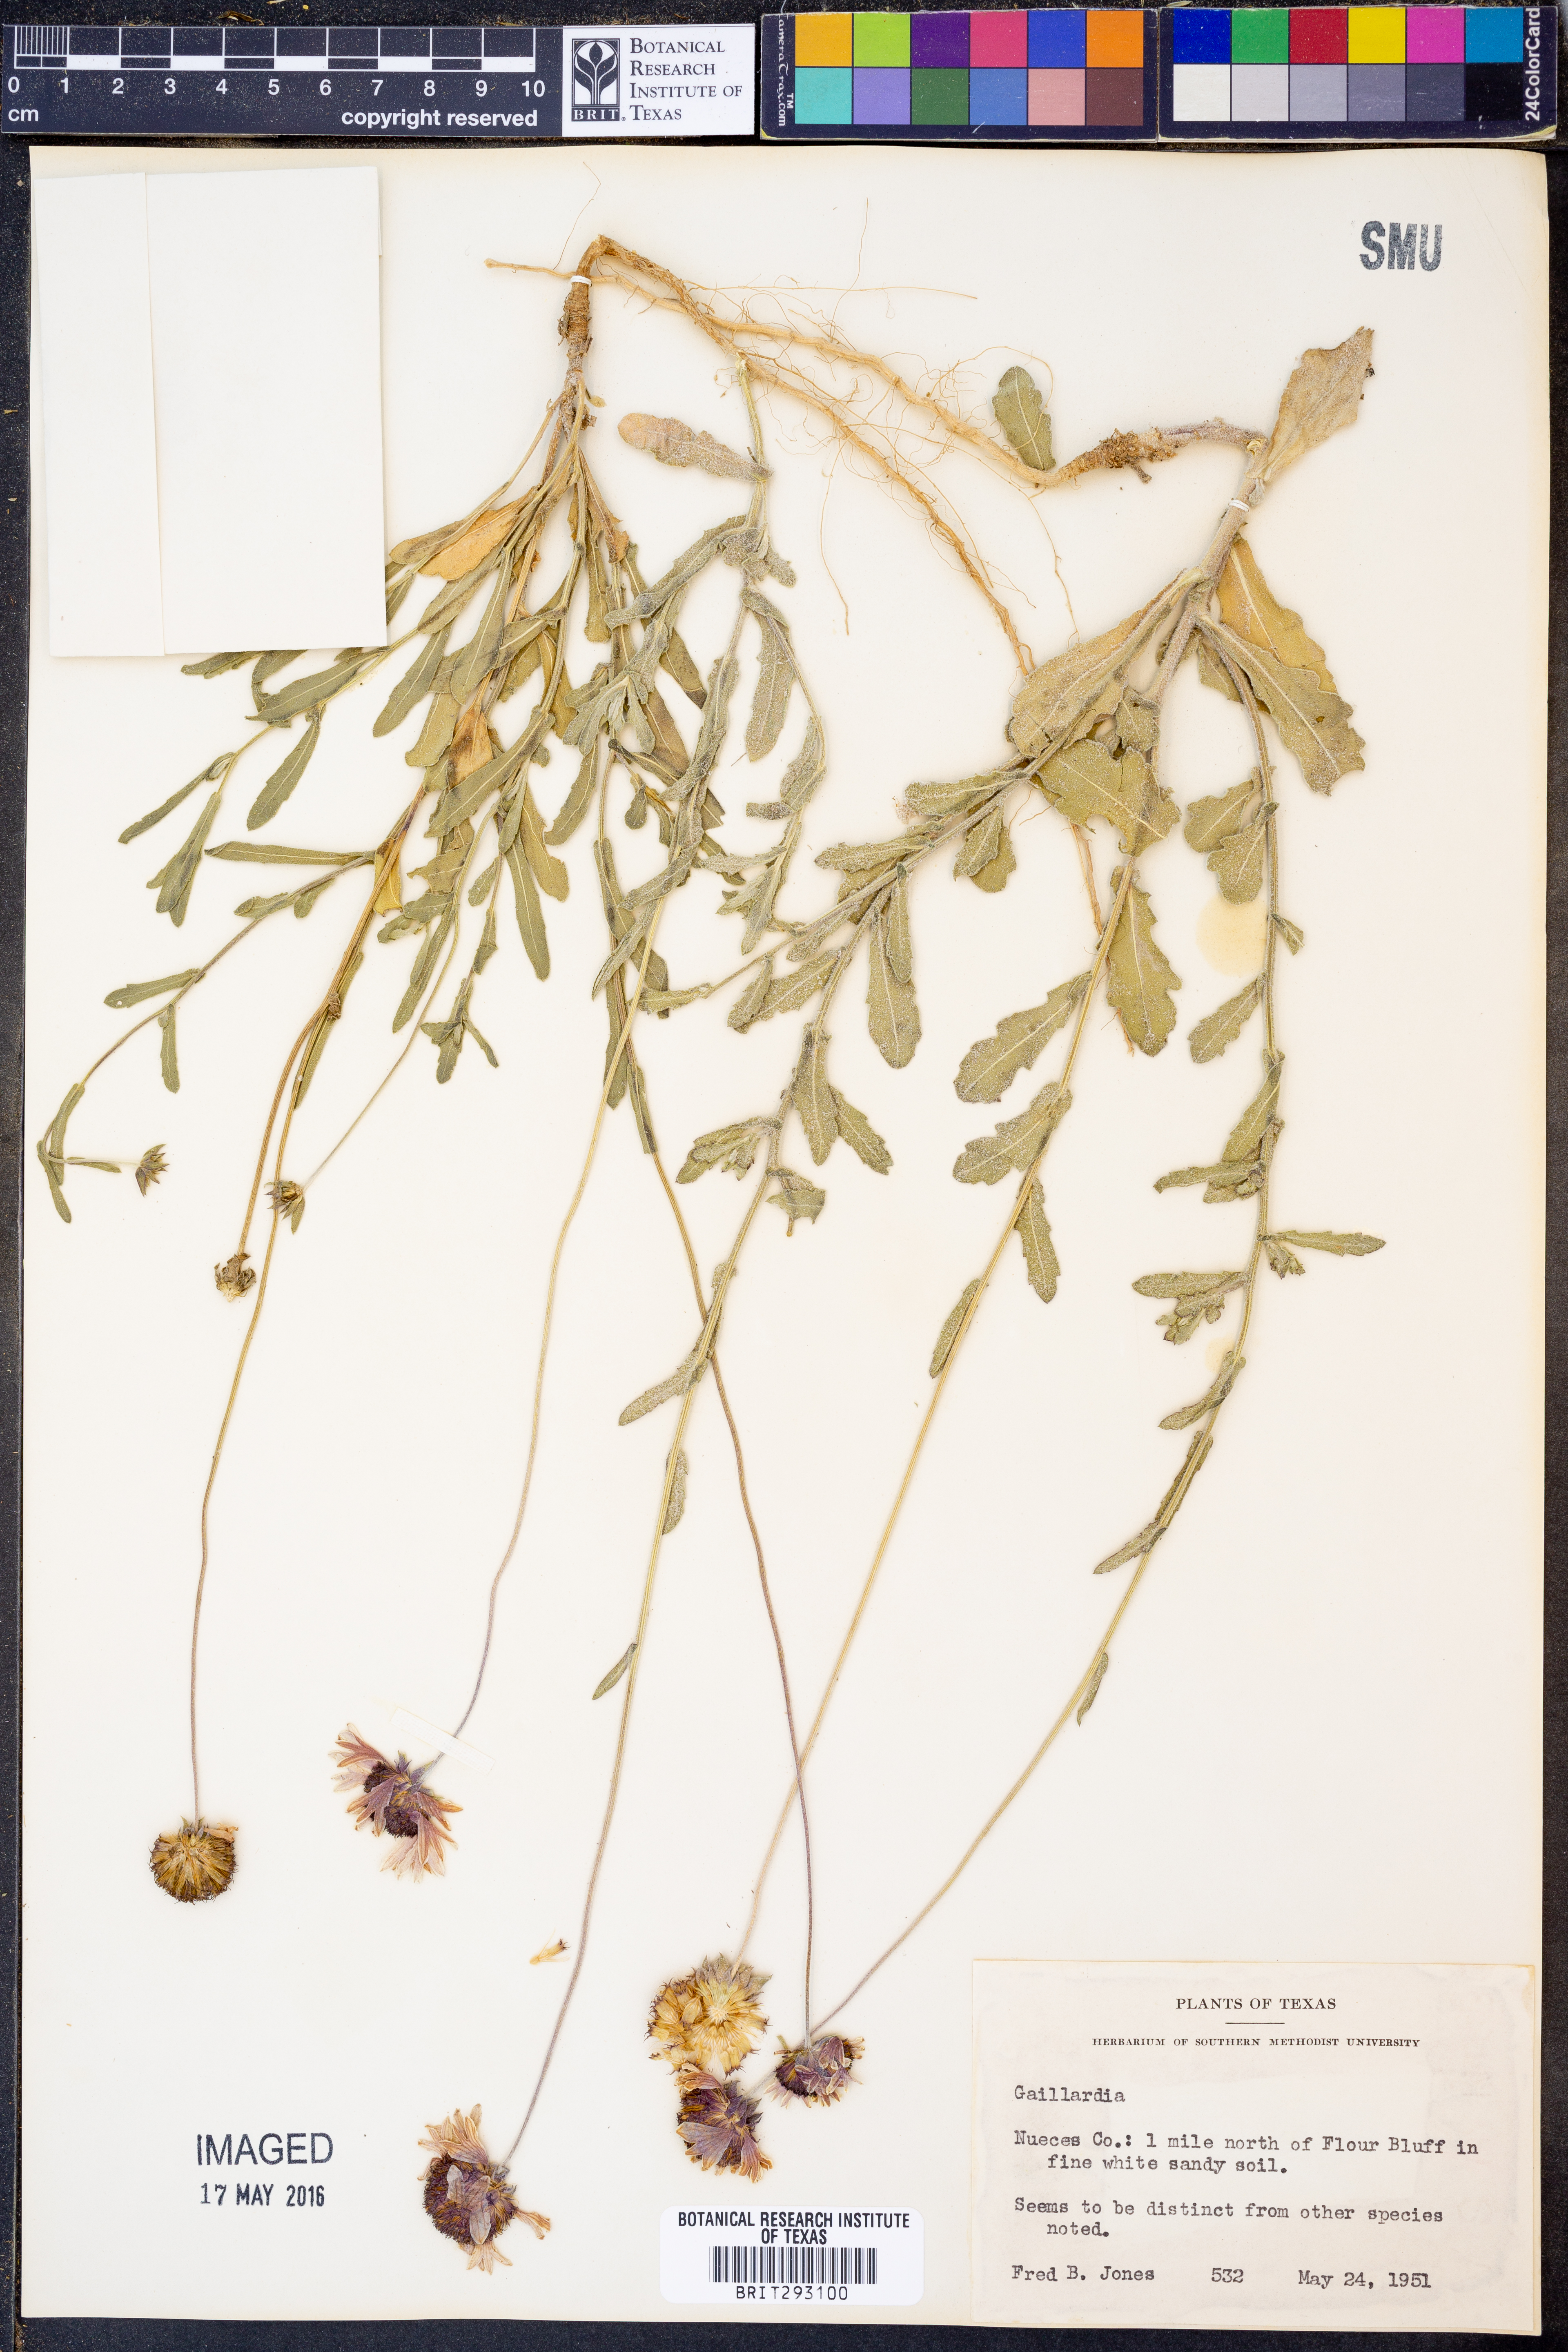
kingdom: Plantae
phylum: Tracheophyta
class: Magnoliopsida
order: Asterales
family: Asteraceae
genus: Gaillardia
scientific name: Gaillardia
